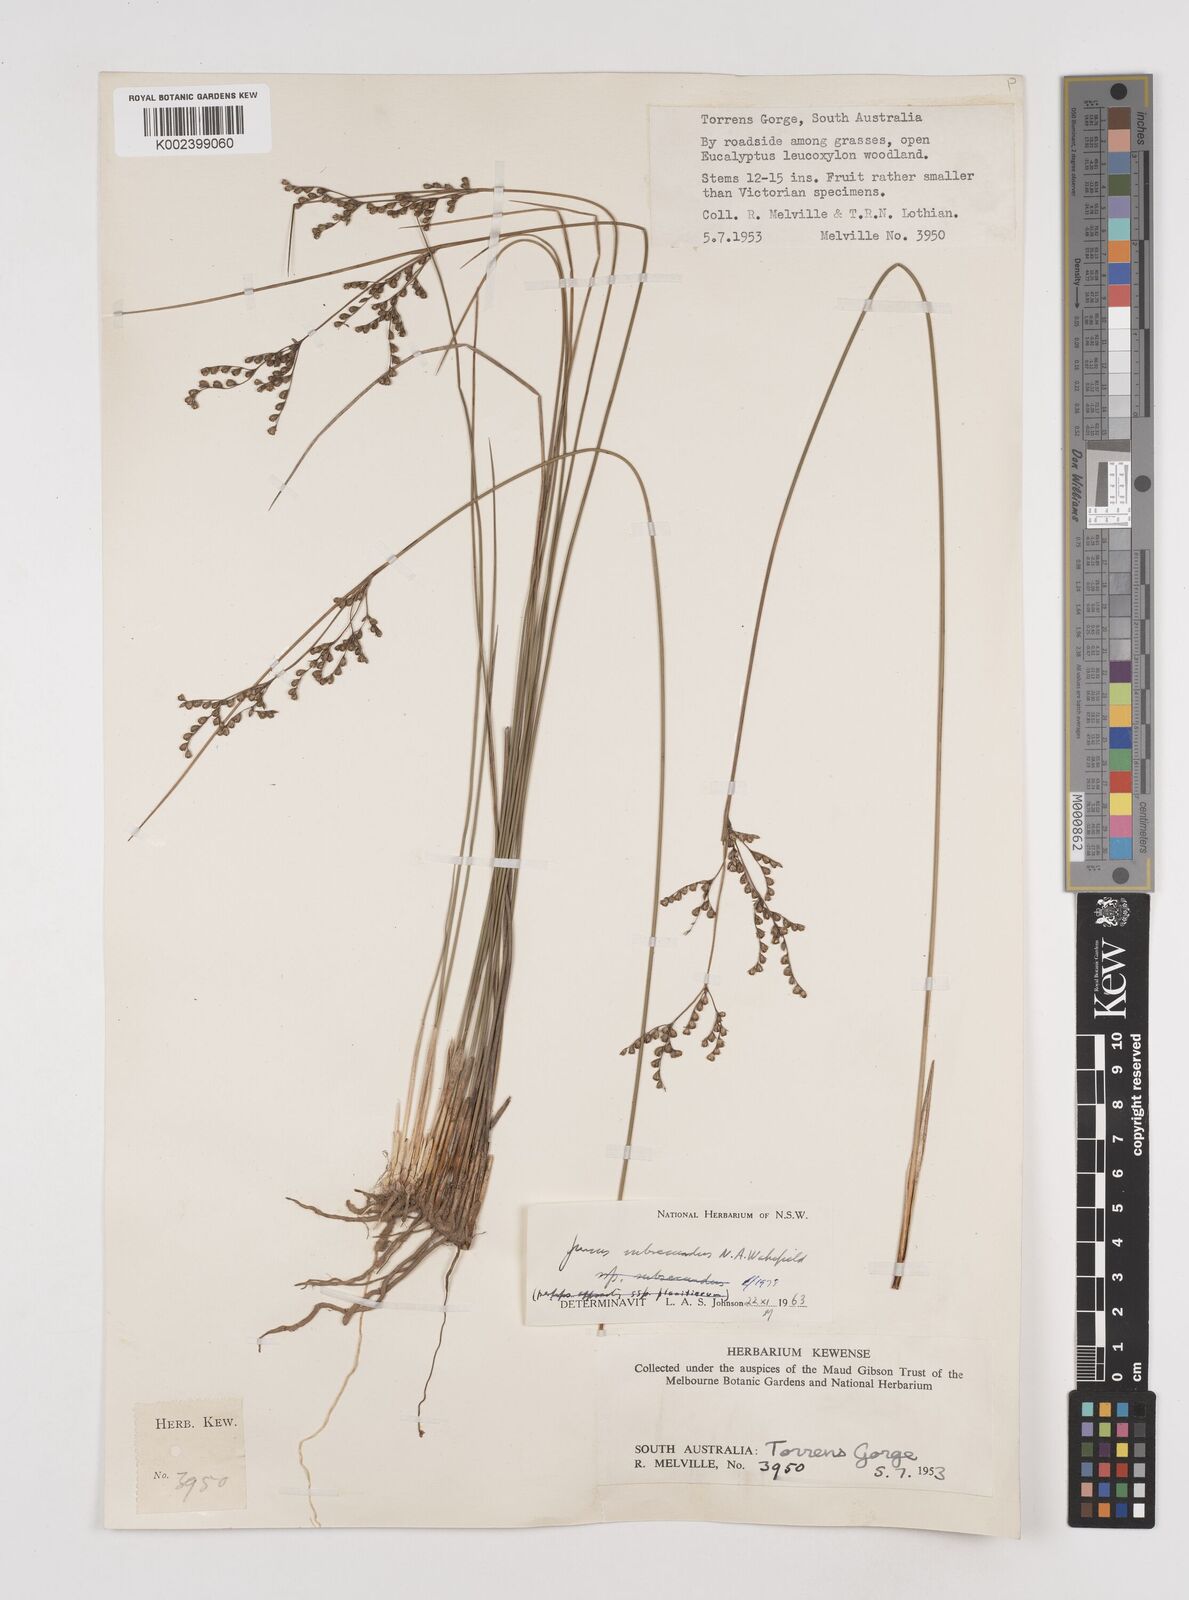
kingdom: Plantae
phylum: Tracheophyta
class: Liliopsida
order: Poales
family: Juncaceae
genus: Juncus
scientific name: Juncus subsecundus
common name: Fingered rush
